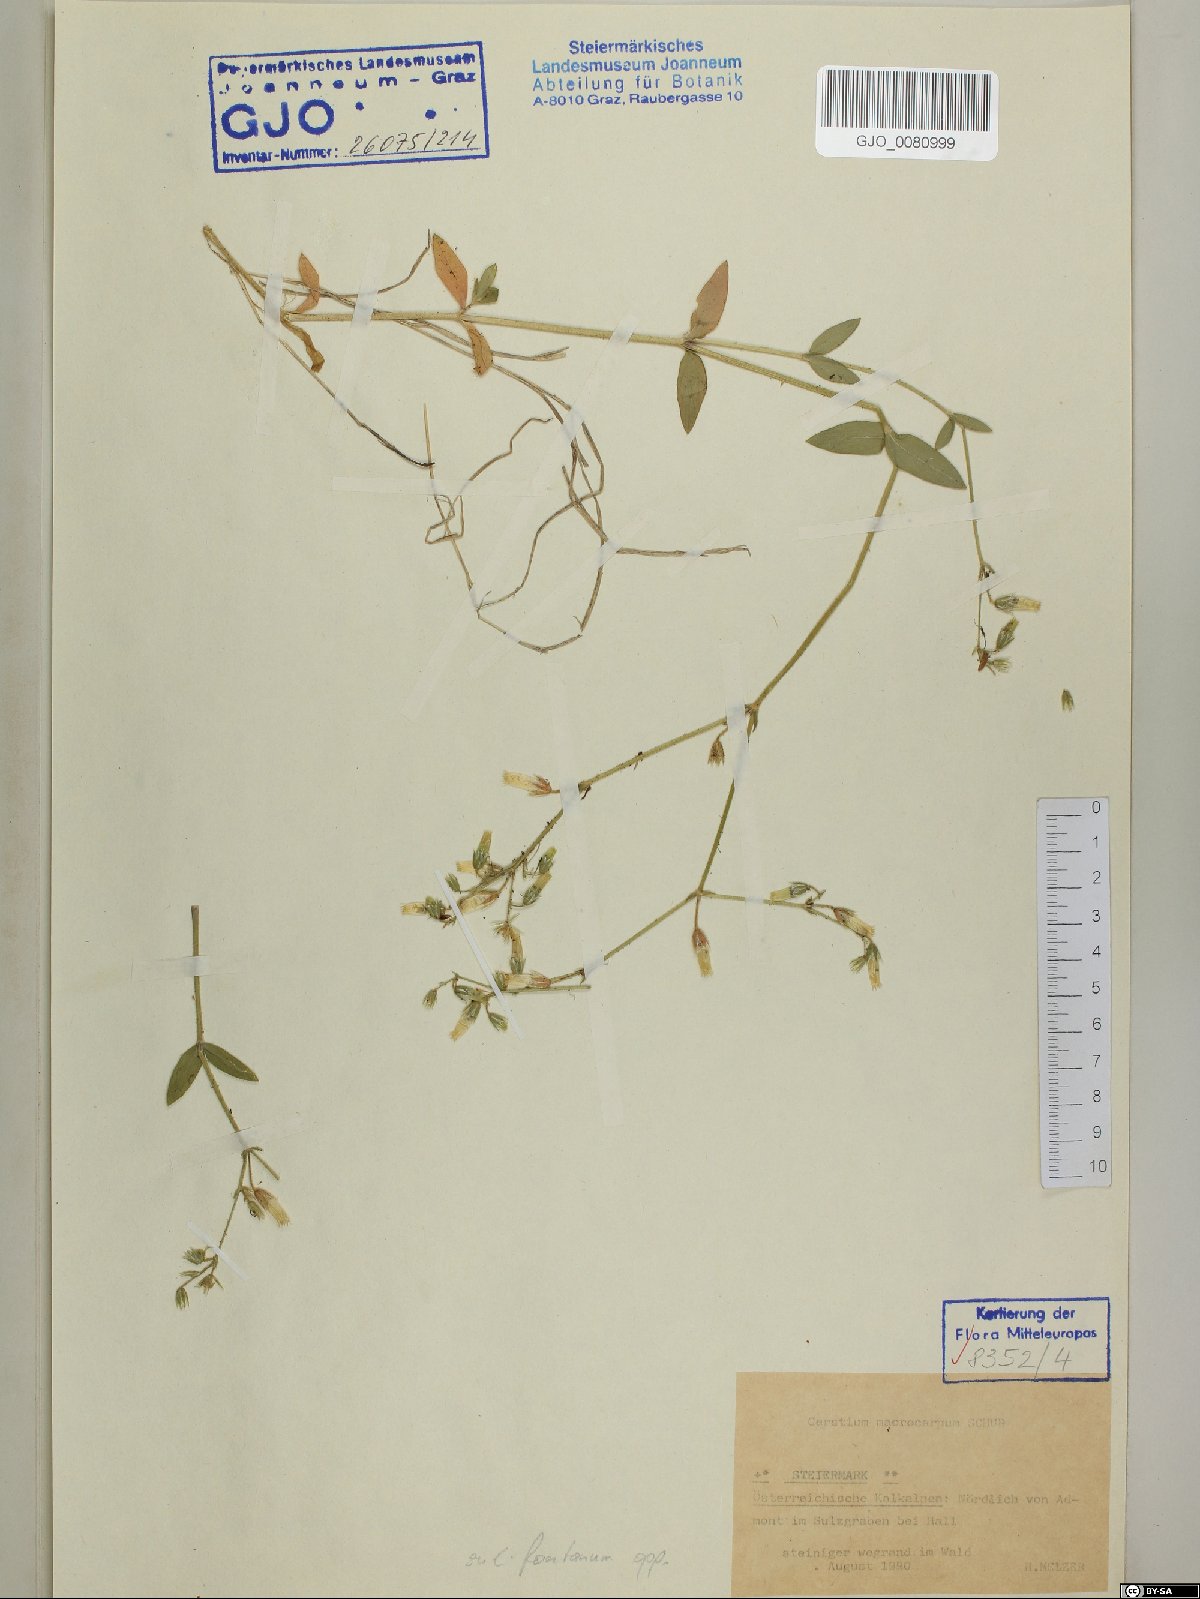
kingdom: Plantae
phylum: Tracheophyta
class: Magnoliopsida
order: Caryophyllales
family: Caryophyllaceae
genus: Cerastium
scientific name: Cerastium lucorum
